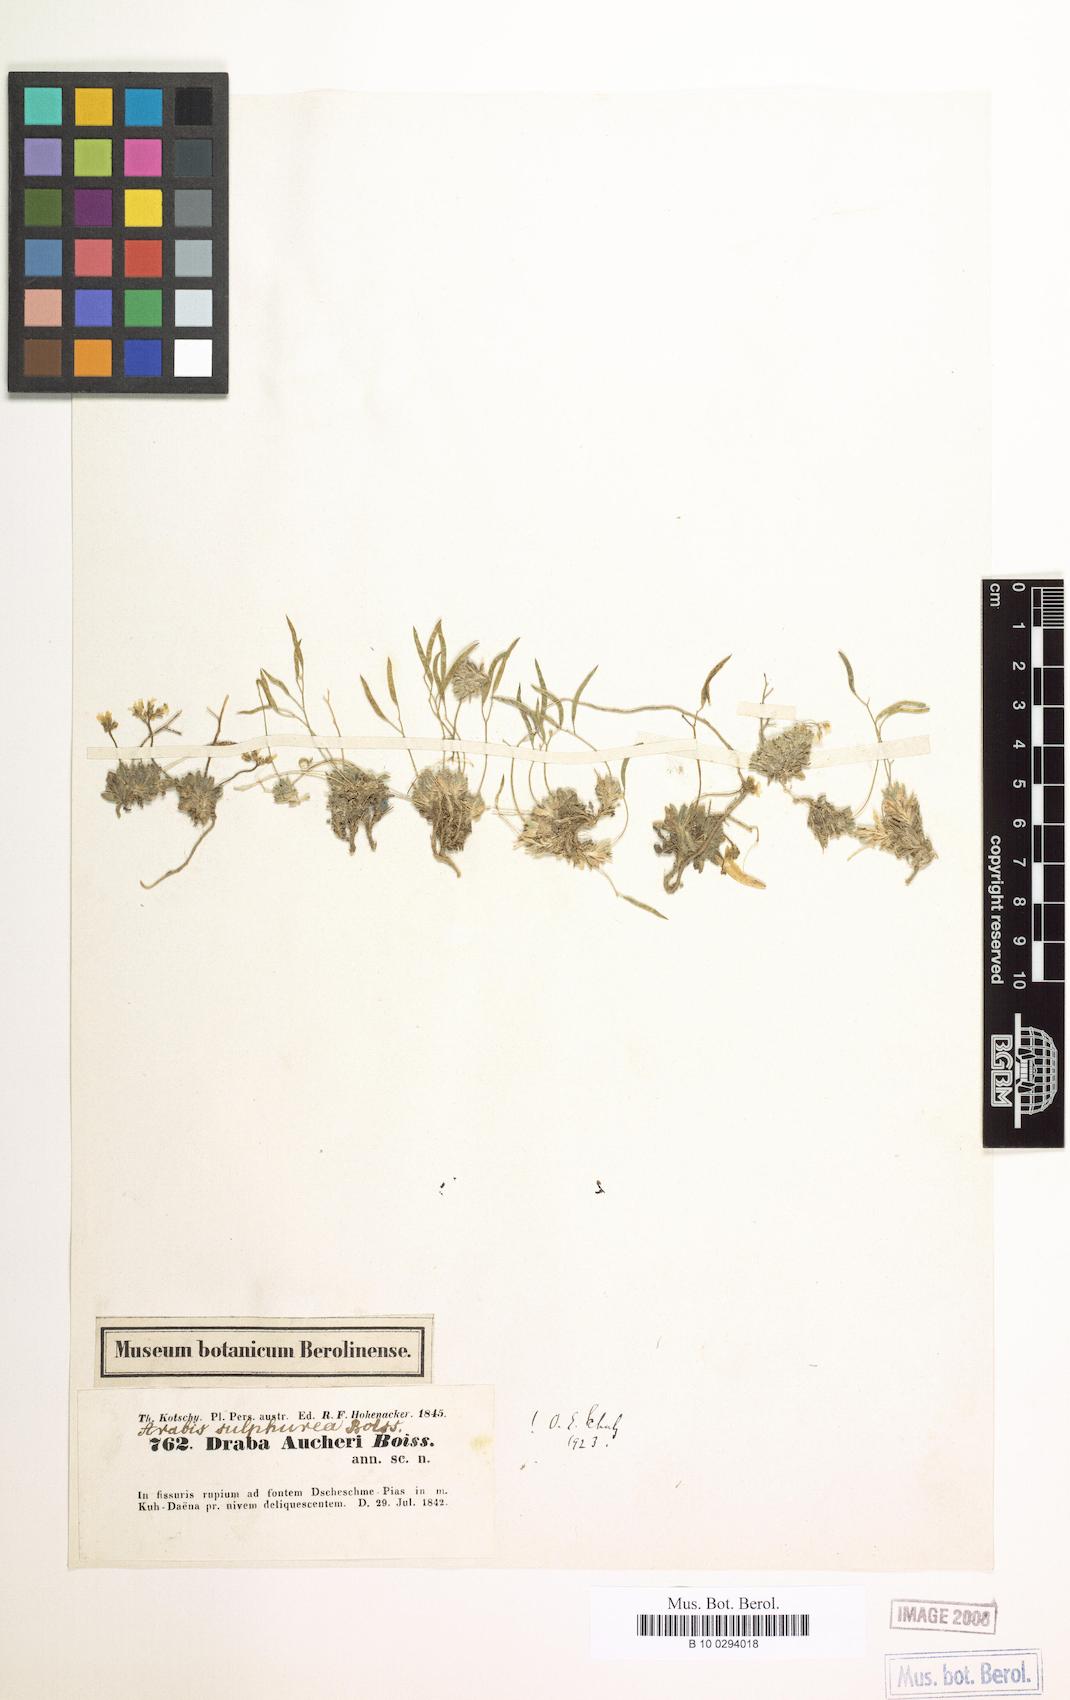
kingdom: Plantae
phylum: Tracheophyta
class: Magnoliopsida
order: Brassicales
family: Brassicaceae
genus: Draba
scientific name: Draba aucheri
